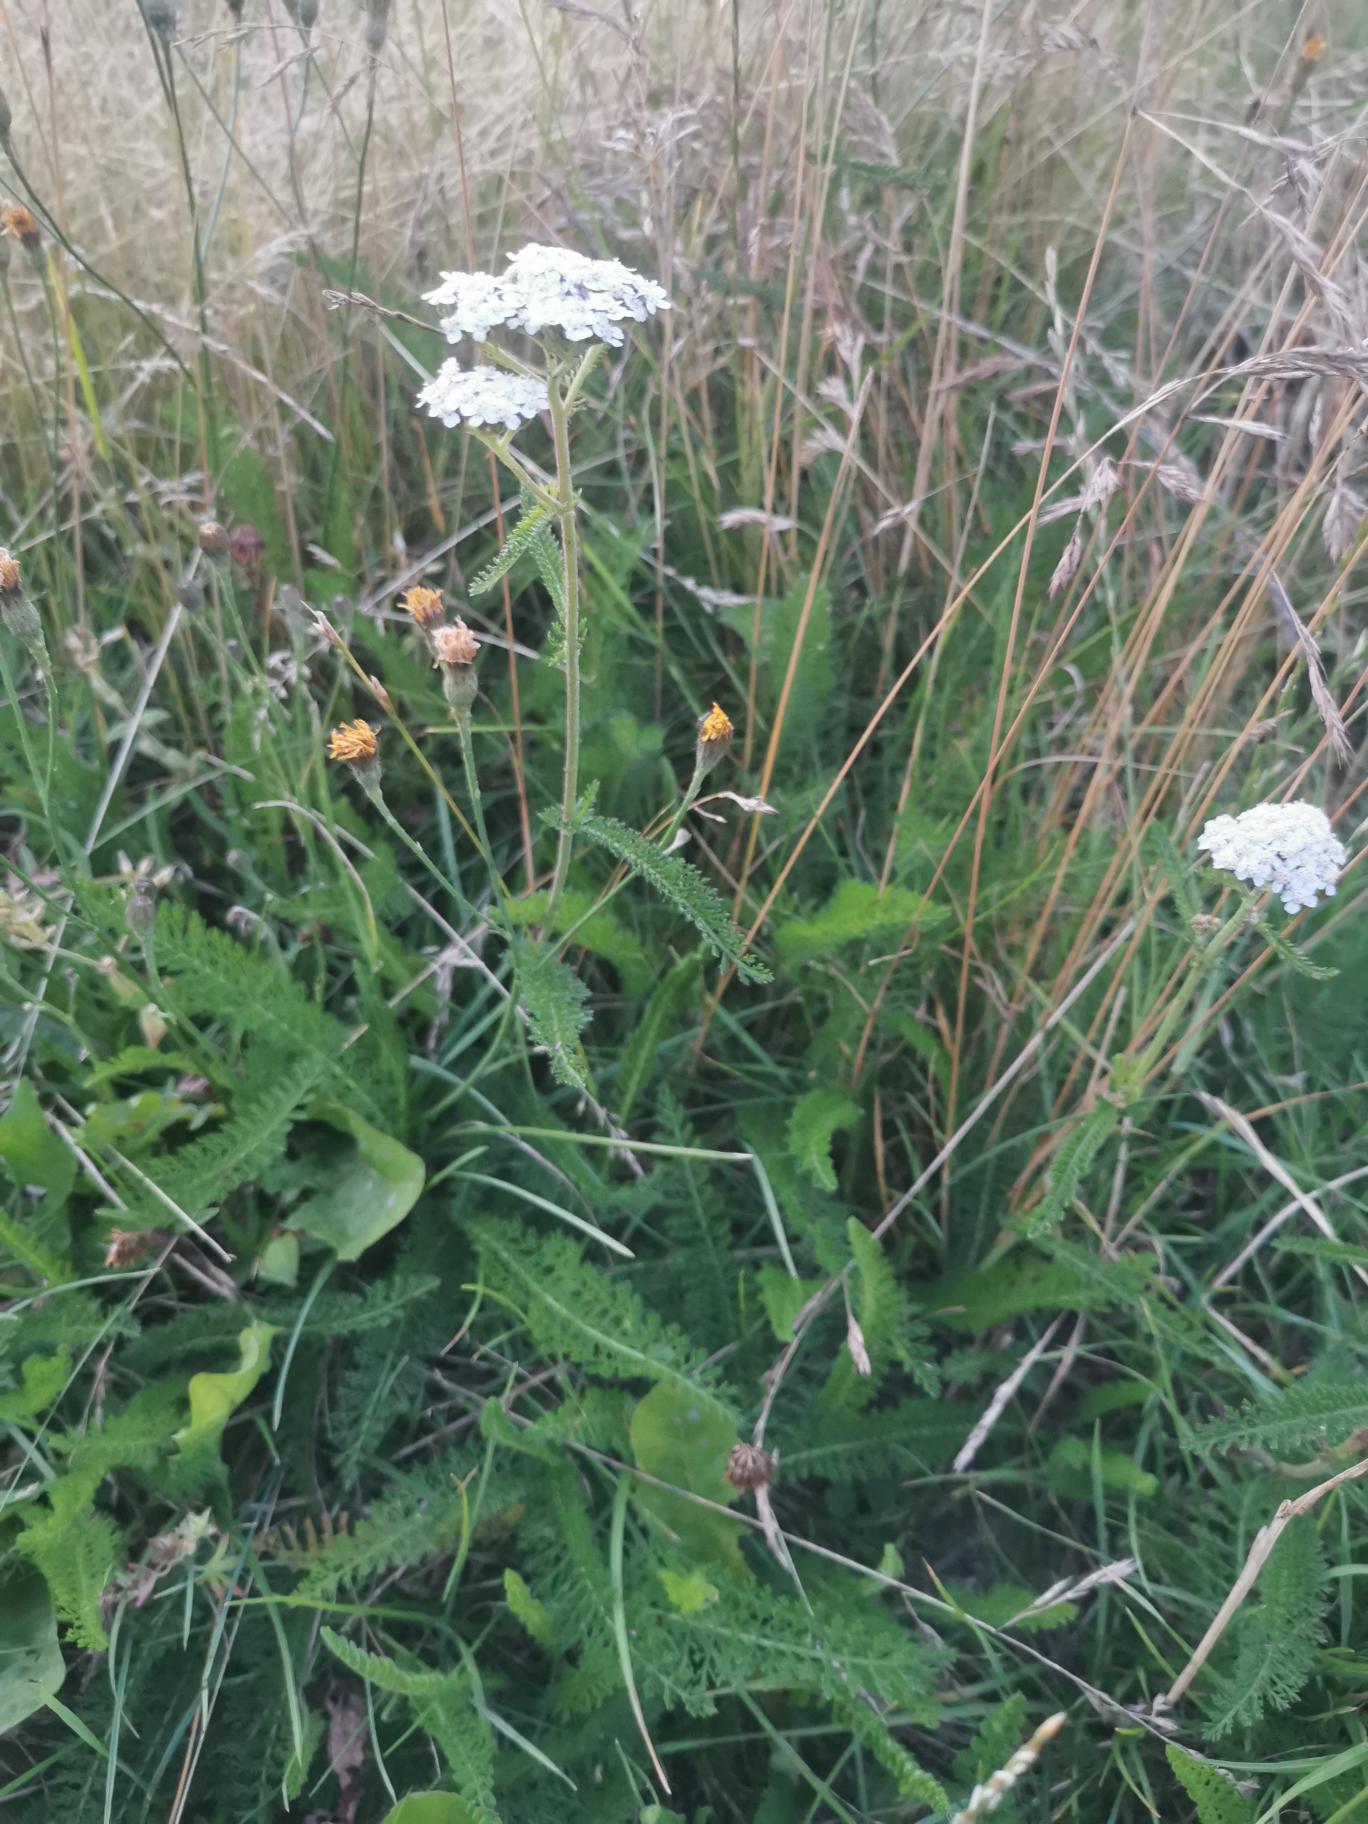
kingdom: Plantae
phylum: Tracheophyta
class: Magnoliopsida
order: Asterales
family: Asteraceae
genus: Achillea
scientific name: Achillea millefolium
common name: Almindelig røllike
